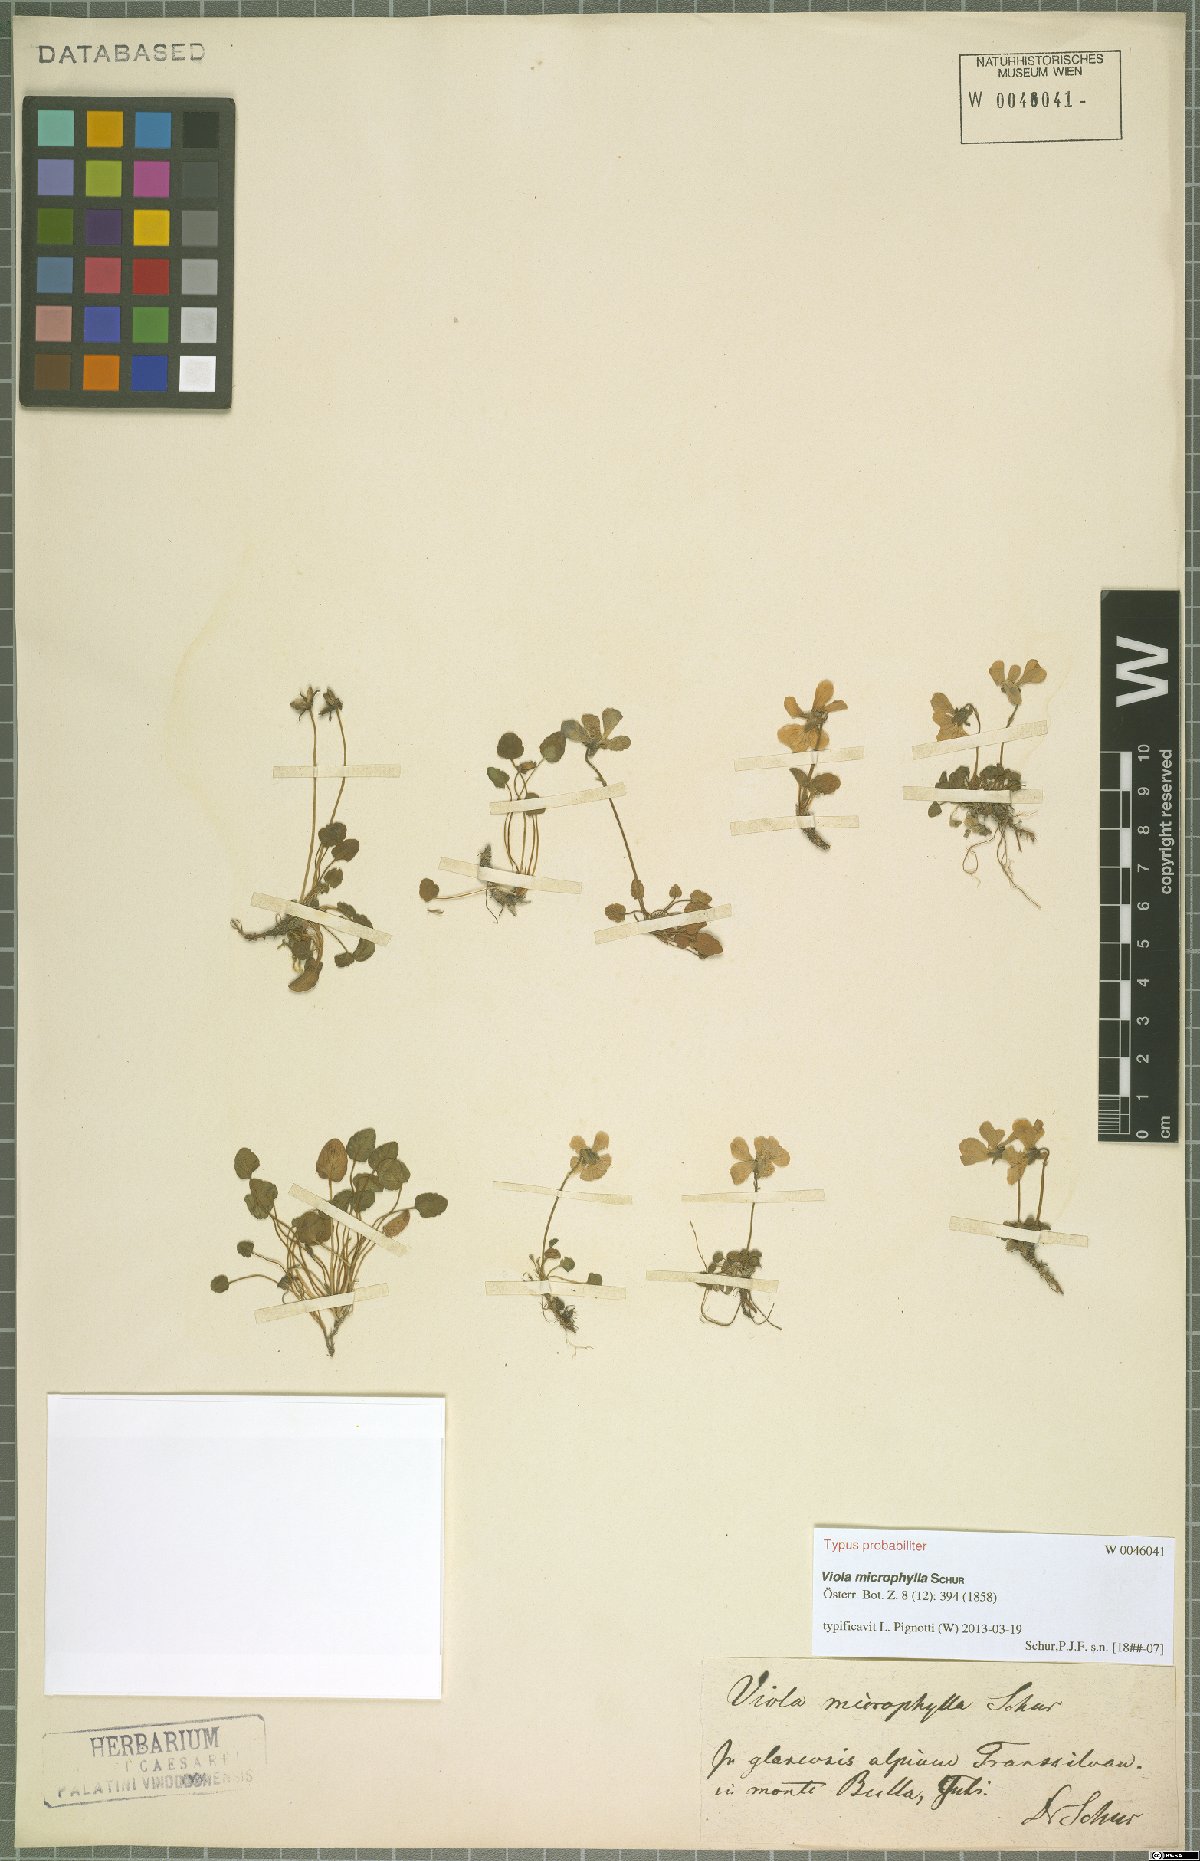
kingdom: Plantae
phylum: Tracheophyta
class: Magnoliopsida
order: Malpighiales
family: Violaceae
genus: Viola
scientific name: Viola alpina
